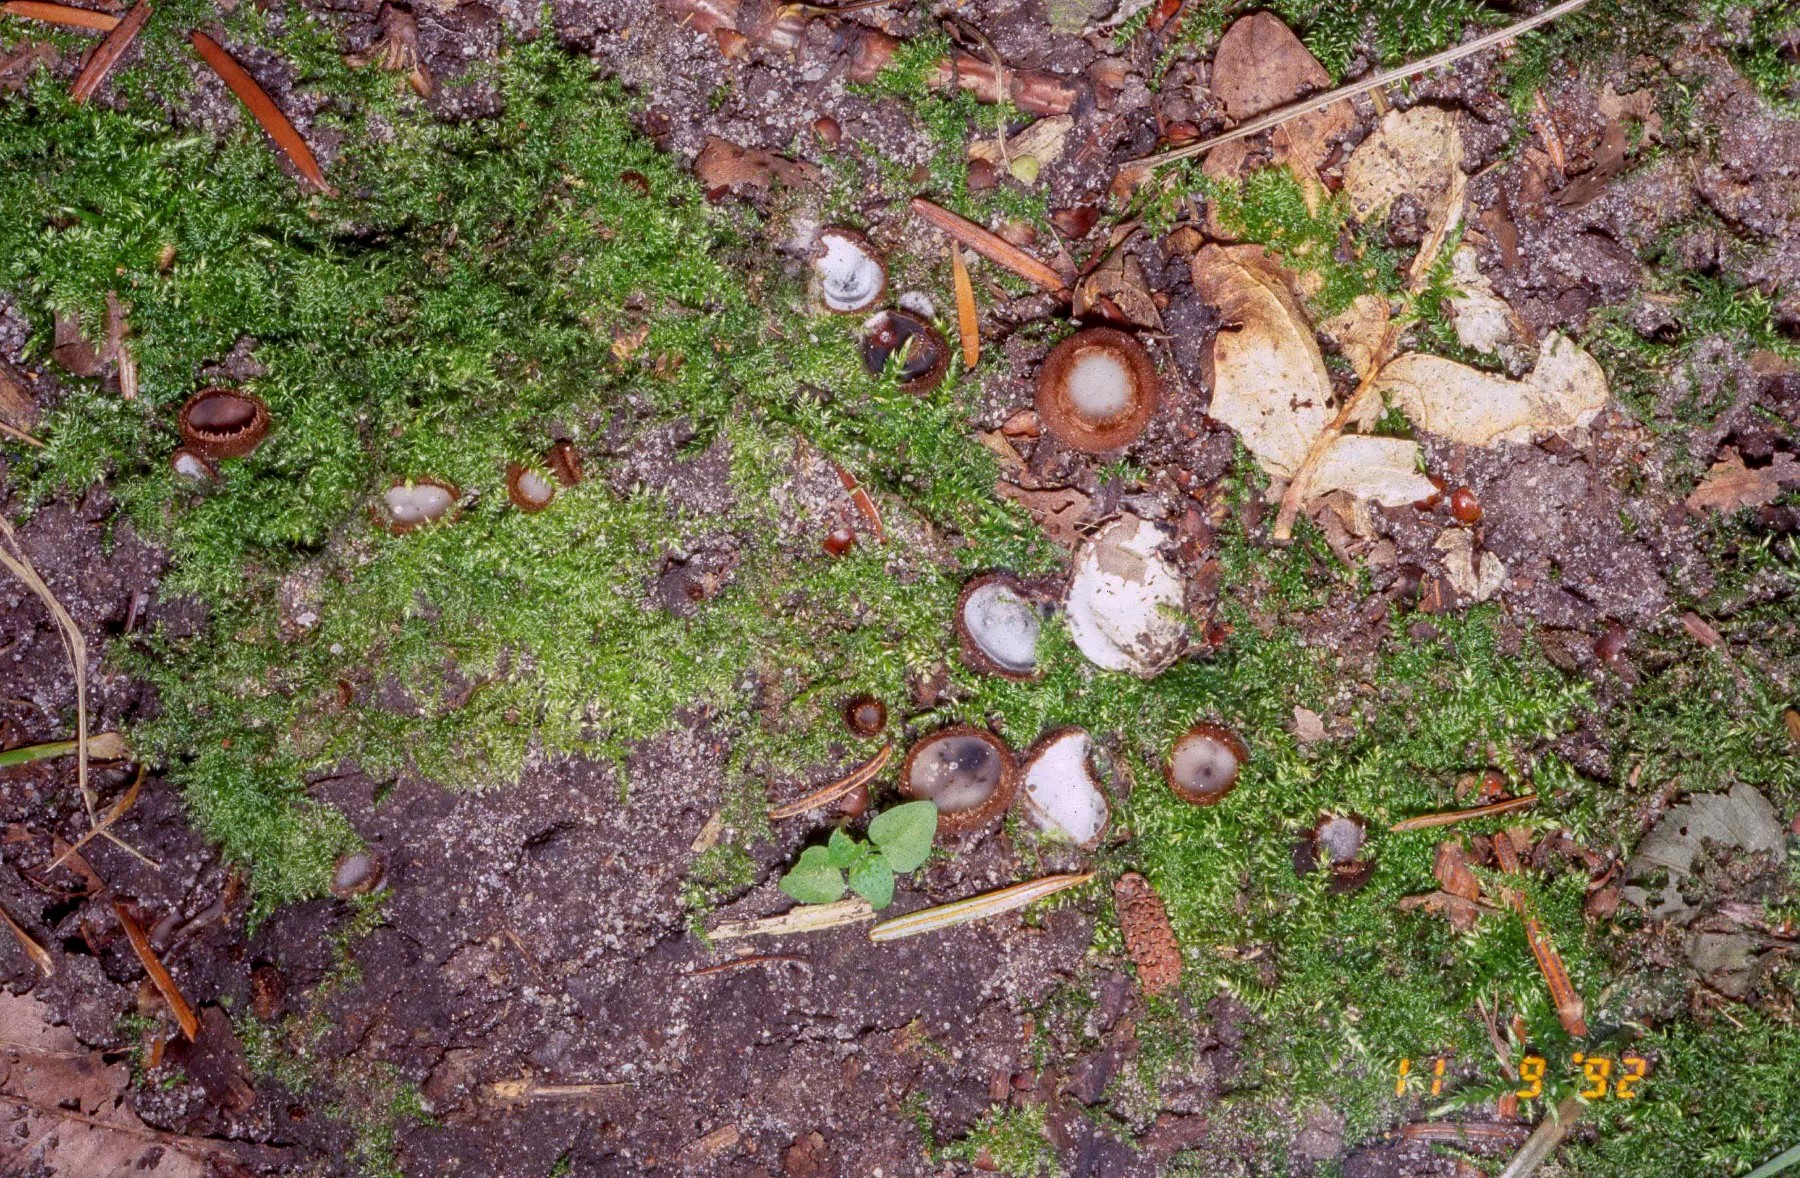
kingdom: Fungi
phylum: Ascomycota
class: Pezizomycetes
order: Pezizales
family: Pyronemataceae
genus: Humaria
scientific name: Humaria hemisphaerica
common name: halvkugleformet børstebæger
